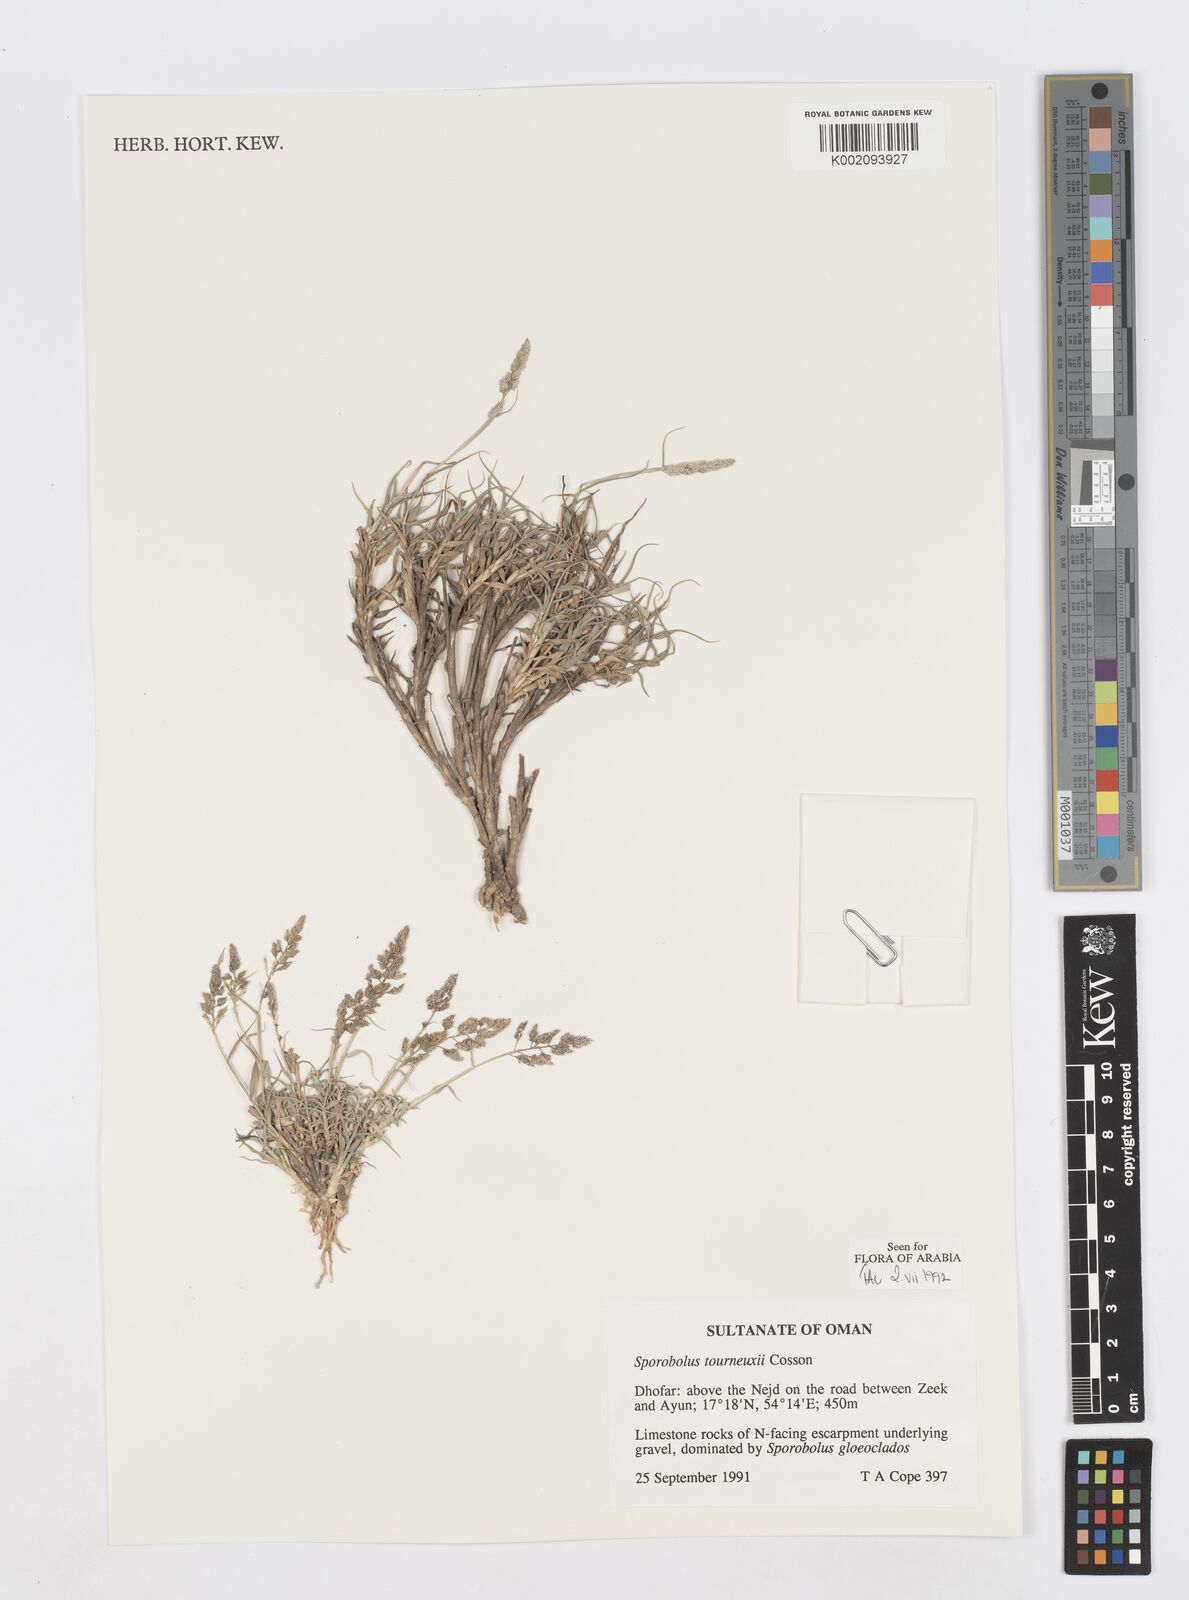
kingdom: Plantae
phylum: Tracheophyta
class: Liliopsida
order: Poales
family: Poaceae
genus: Sporobolus
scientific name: Sporobolus tourneuxii
